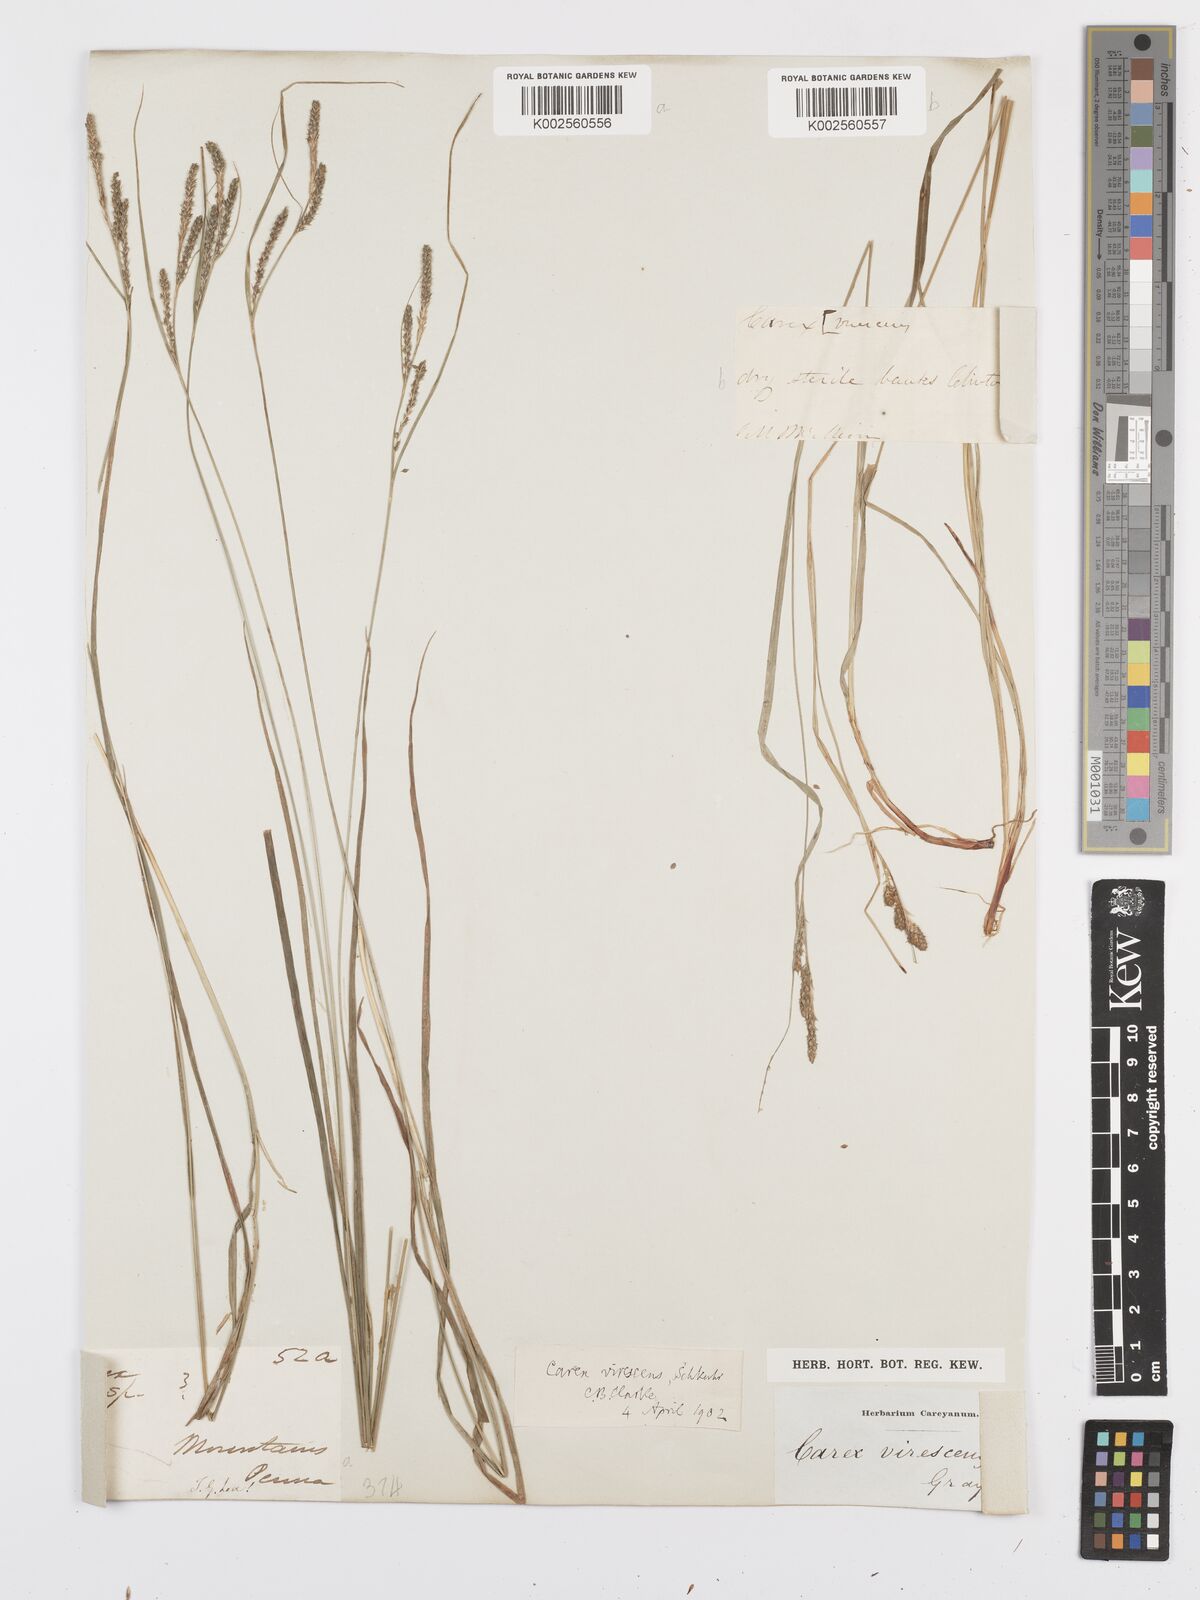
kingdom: Plantae
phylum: Tracheophyta
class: Liliopsida
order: Poales
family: Cyperaceae
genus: Carex
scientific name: Carex virescens
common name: Ribbed sedge
